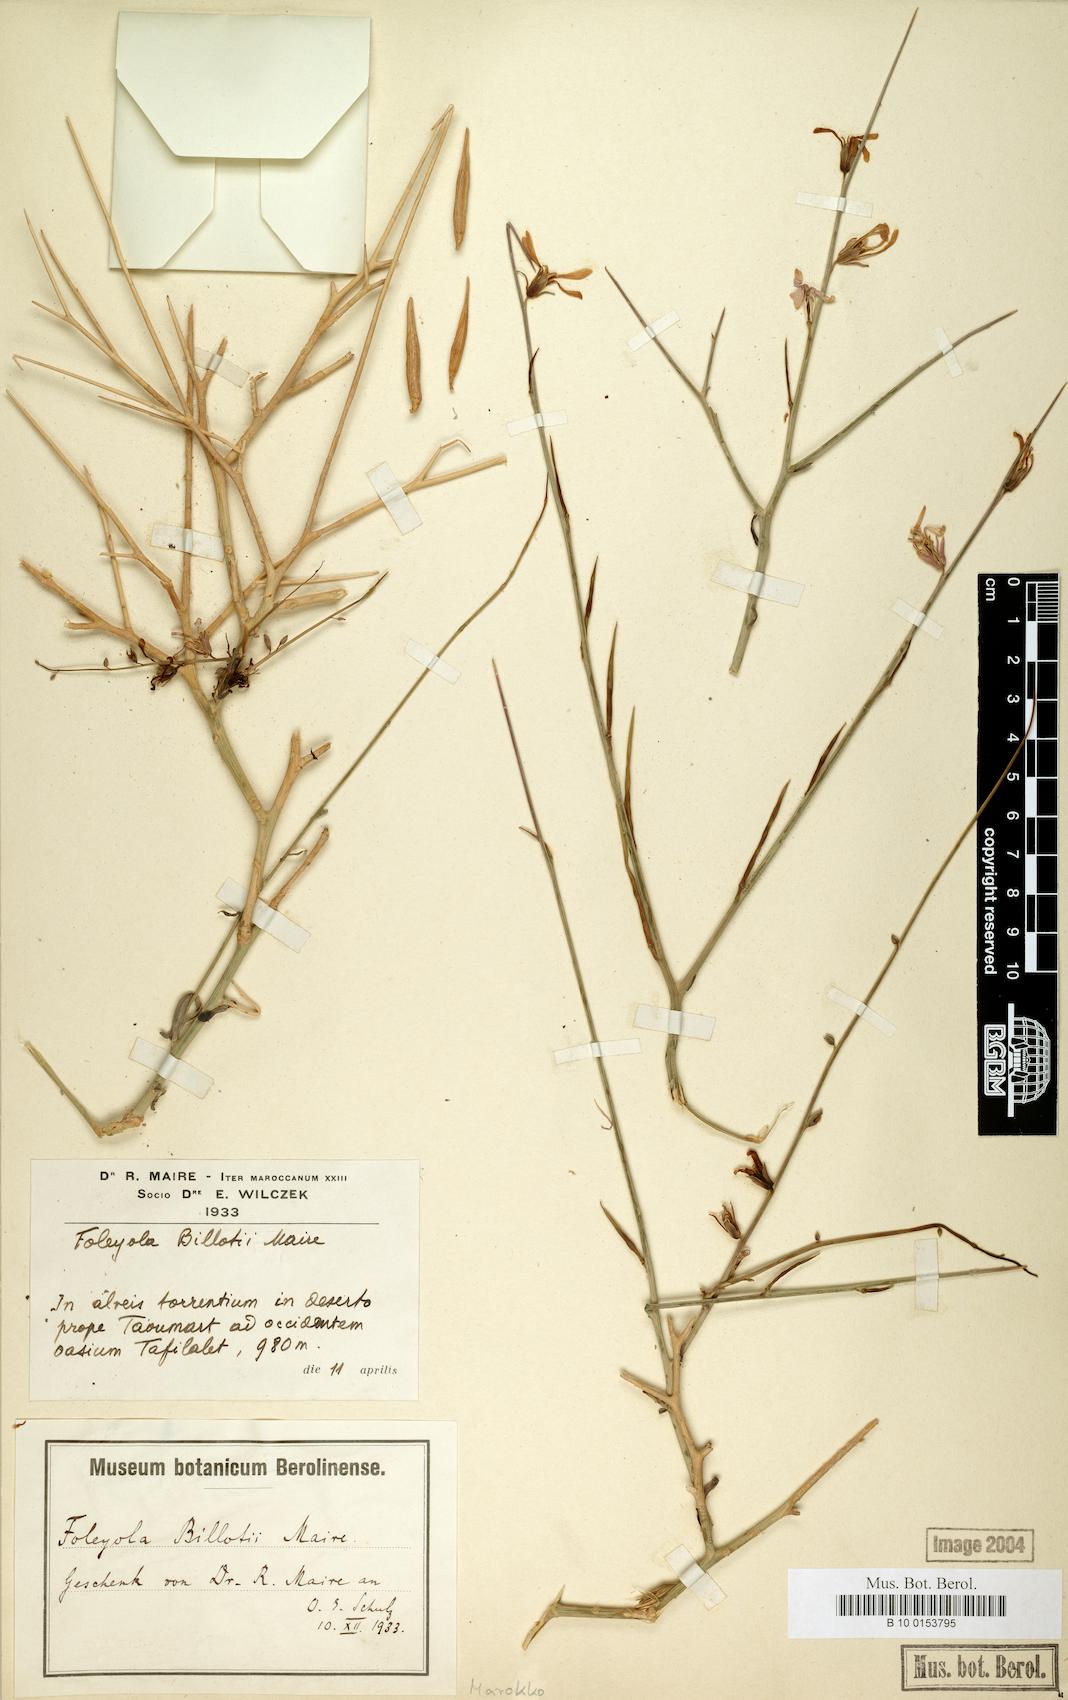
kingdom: Plantae
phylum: Tracheophyta
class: Magnoliopsida
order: Brassicales
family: Brassicaceae
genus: Foleyola
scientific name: Foleyola billotii
